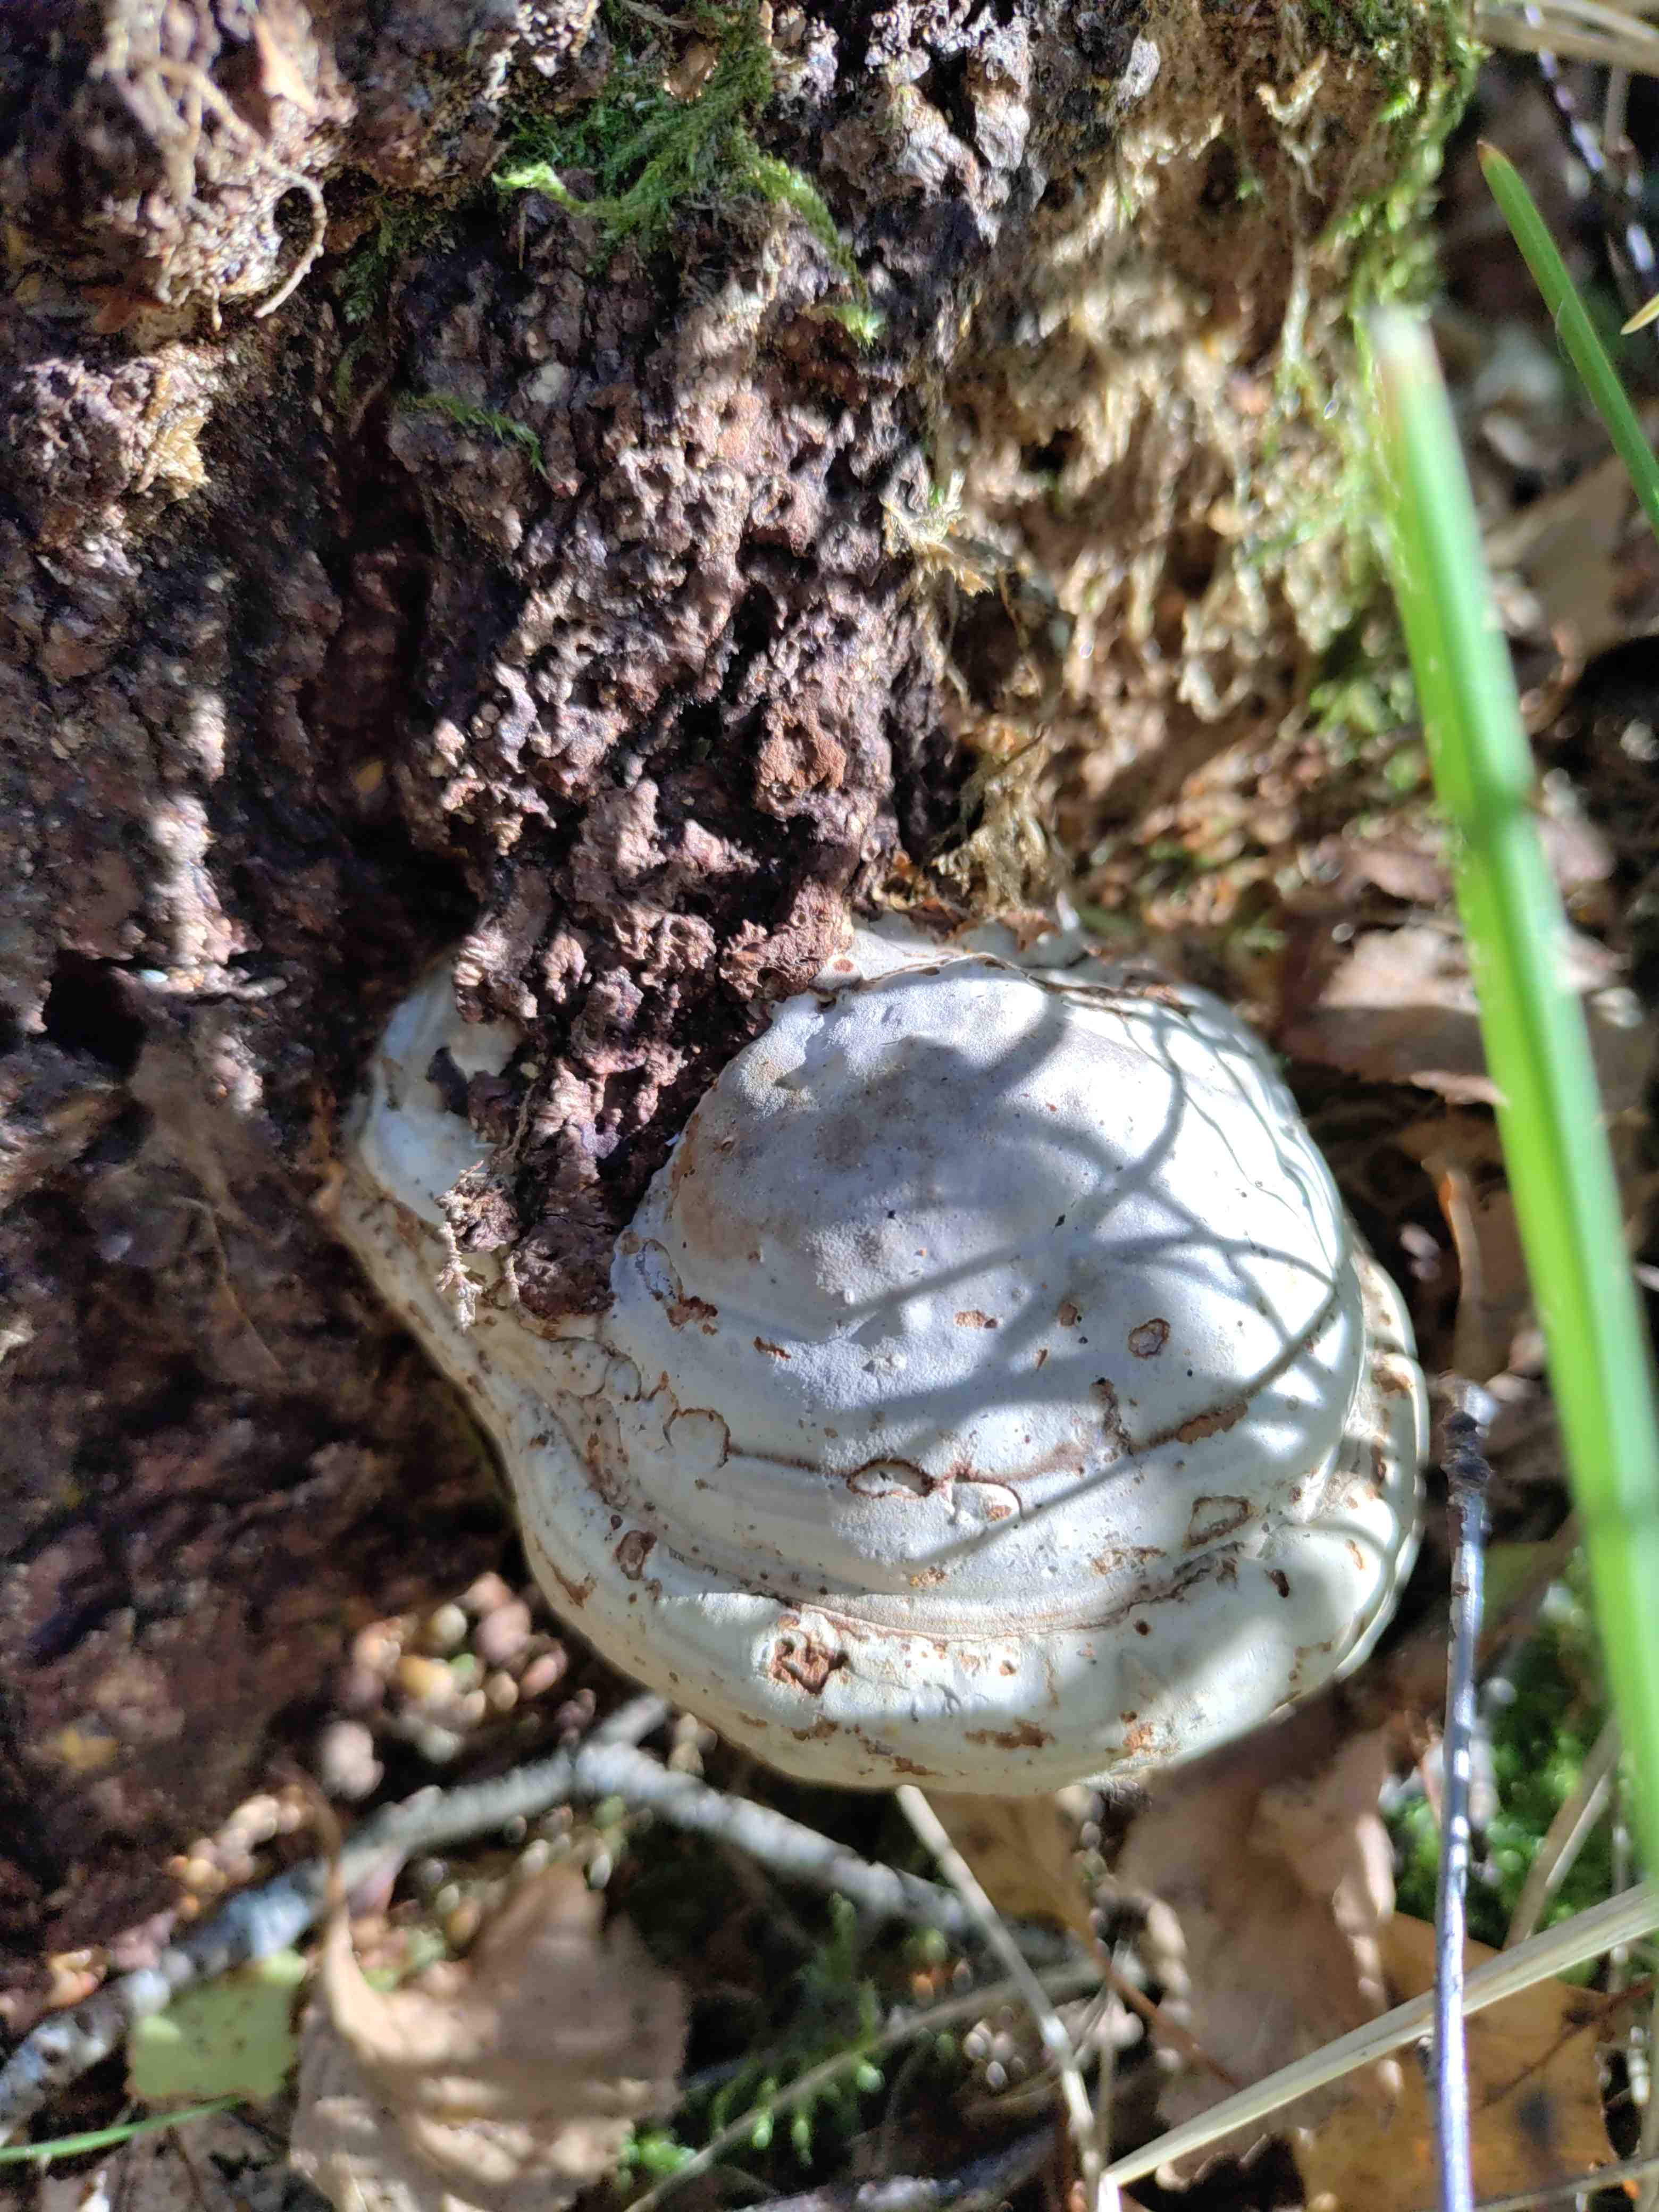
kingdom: Fungi
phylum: Basidiomycota
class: Agaricomycetes
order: Polyporales
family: Polyporaceae
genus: Fomes
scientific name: Fomes fomentarius
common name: tøndersvamp
